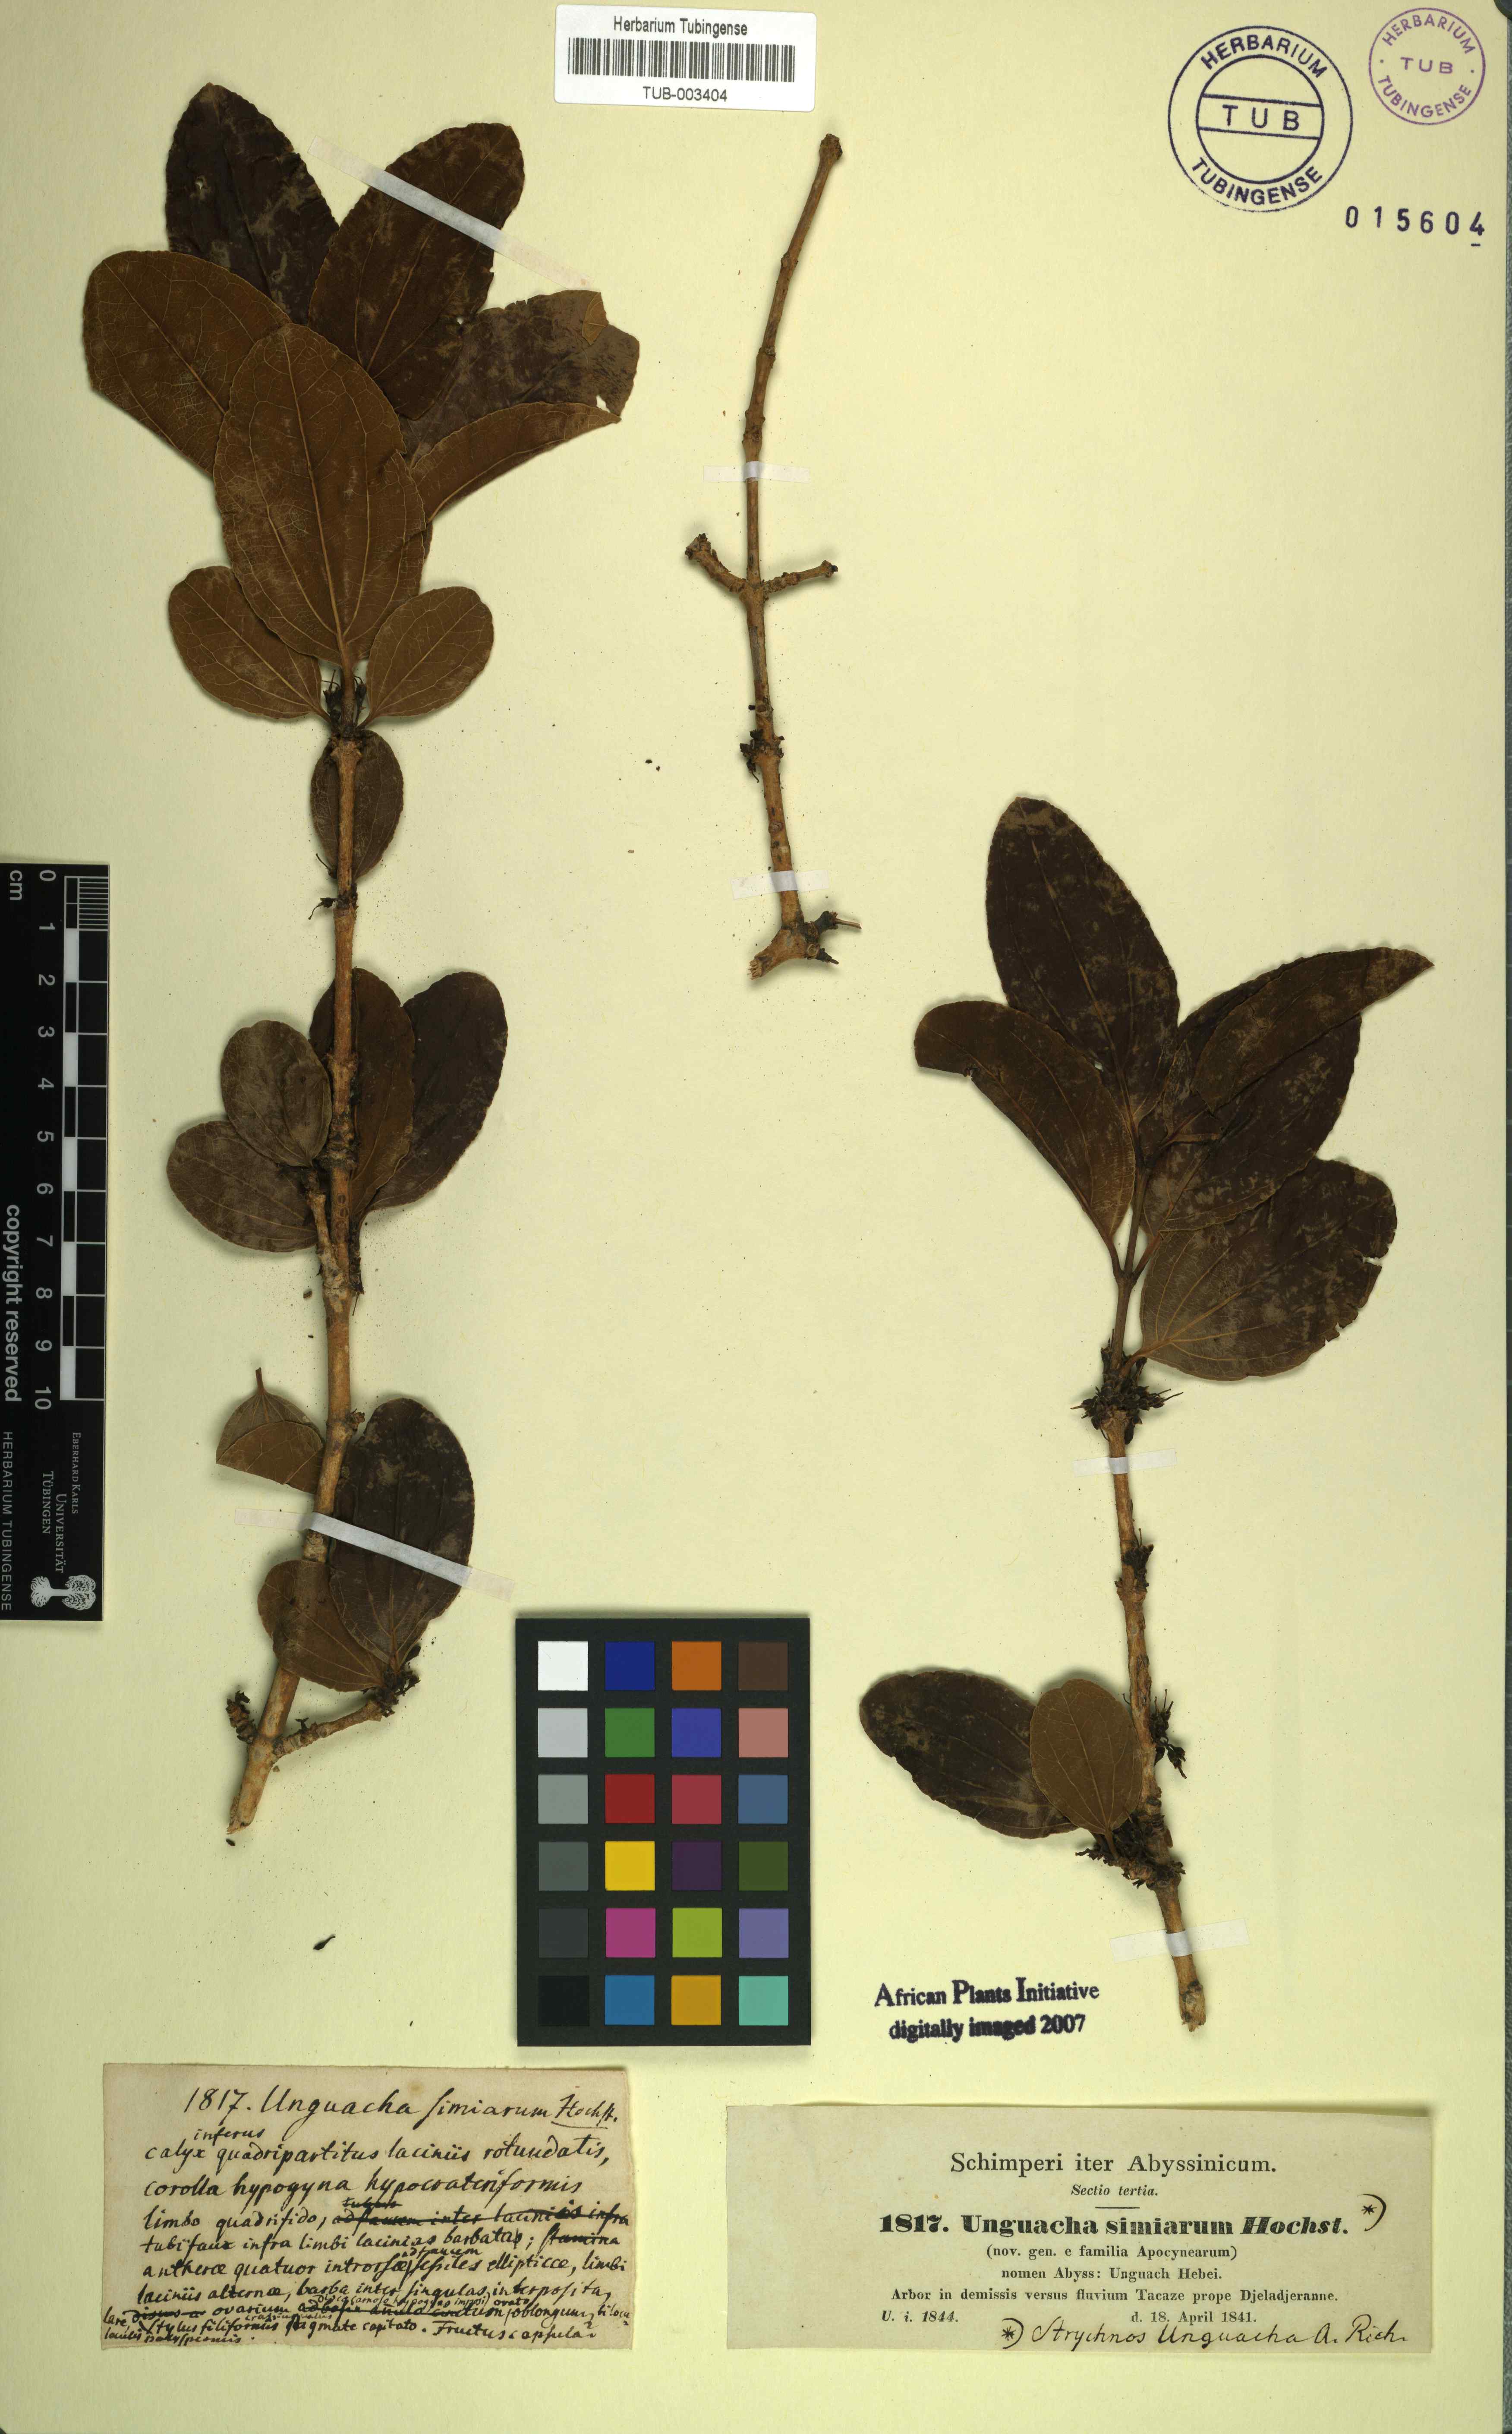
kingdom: Plantae
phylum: Tracheophyta
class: Magnoliopsida
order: Gentianales
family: Loganiaceae
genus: Strychnos
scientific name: Strychnos innocua
